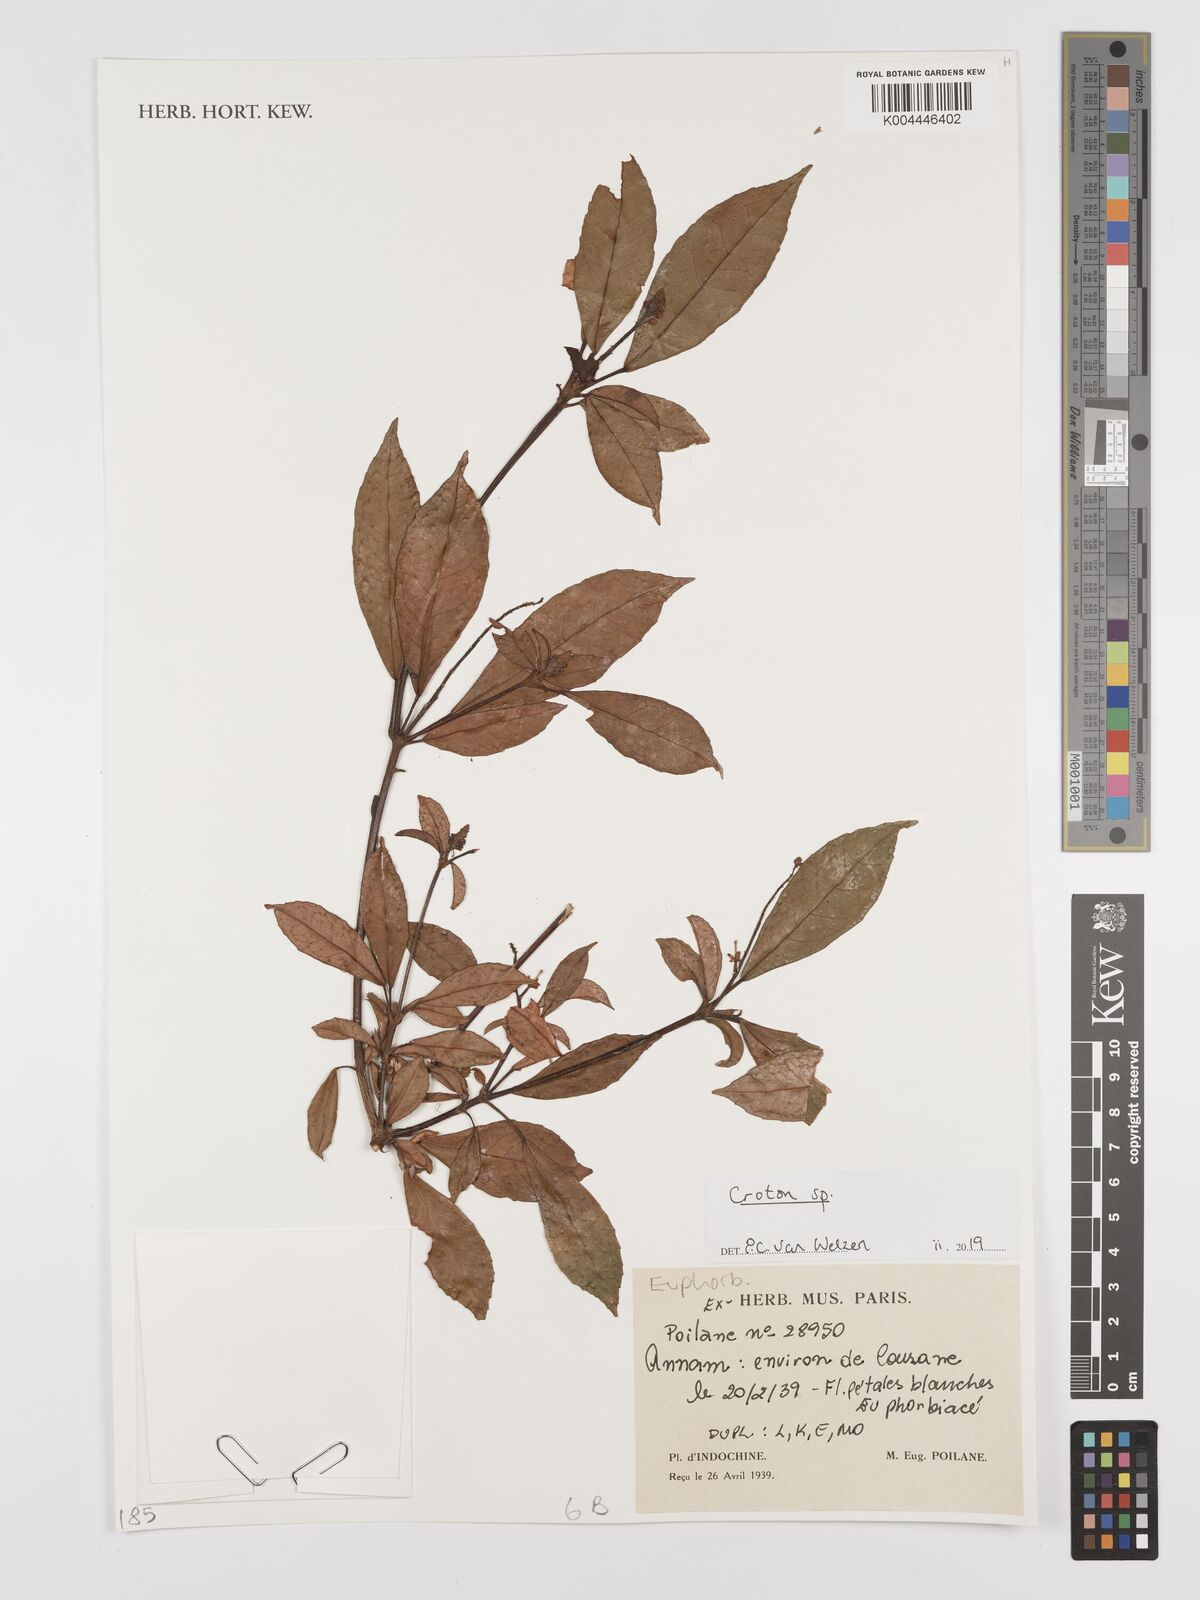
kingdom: Plantae
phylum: Tracheophyta
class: Magnoliopsida
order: Malpighiales
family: Euphorbiaceae
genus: Croton
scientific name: Croton
